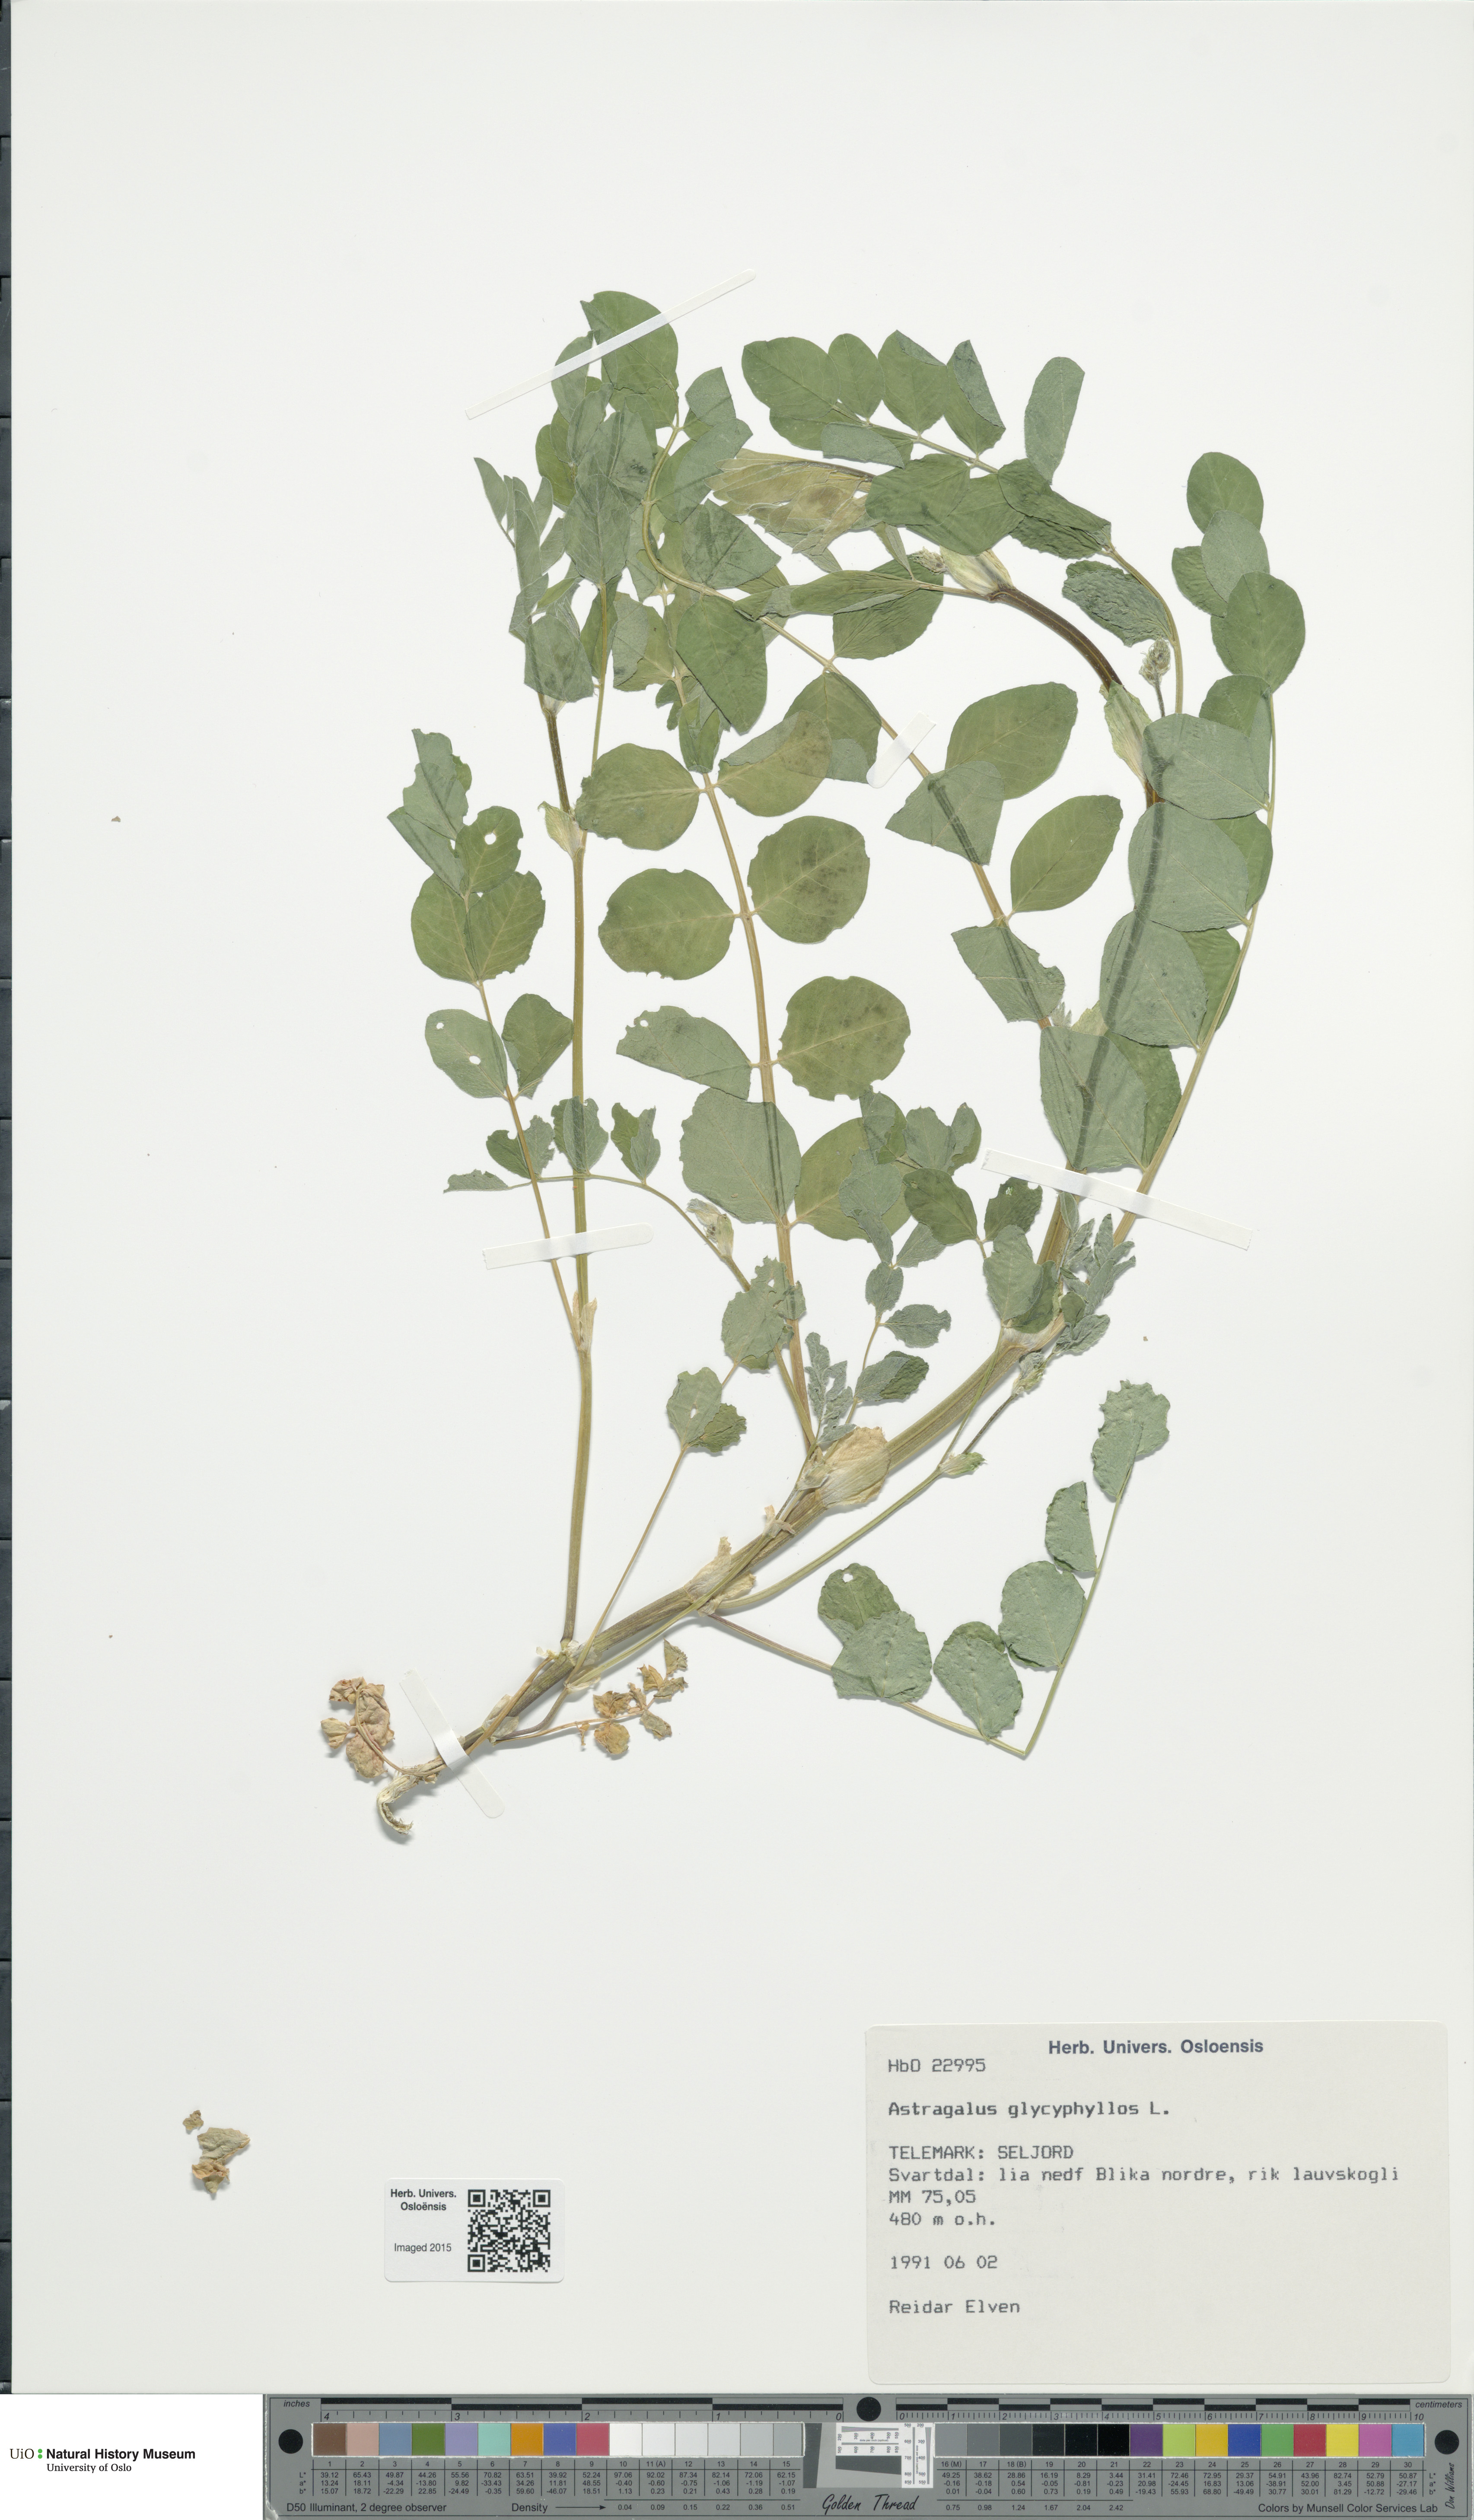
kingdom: Plantae
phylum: Tracheophyta
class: Magnoliopsida
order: Fabales
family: Fabaceae
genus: Astragalus
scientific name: Astragalus glycyphyllos
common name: Wild liquorice
